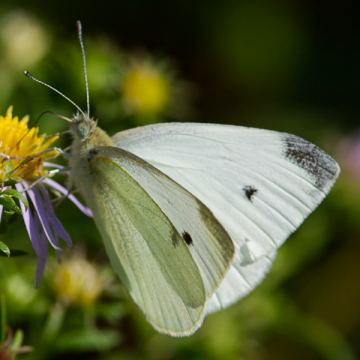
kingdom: Animalia
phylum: Arthropoda
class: Insecta
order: Lepidoptera
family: Pieridae
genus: Pieris
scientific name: Pieris rapae
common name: Cabbage White
